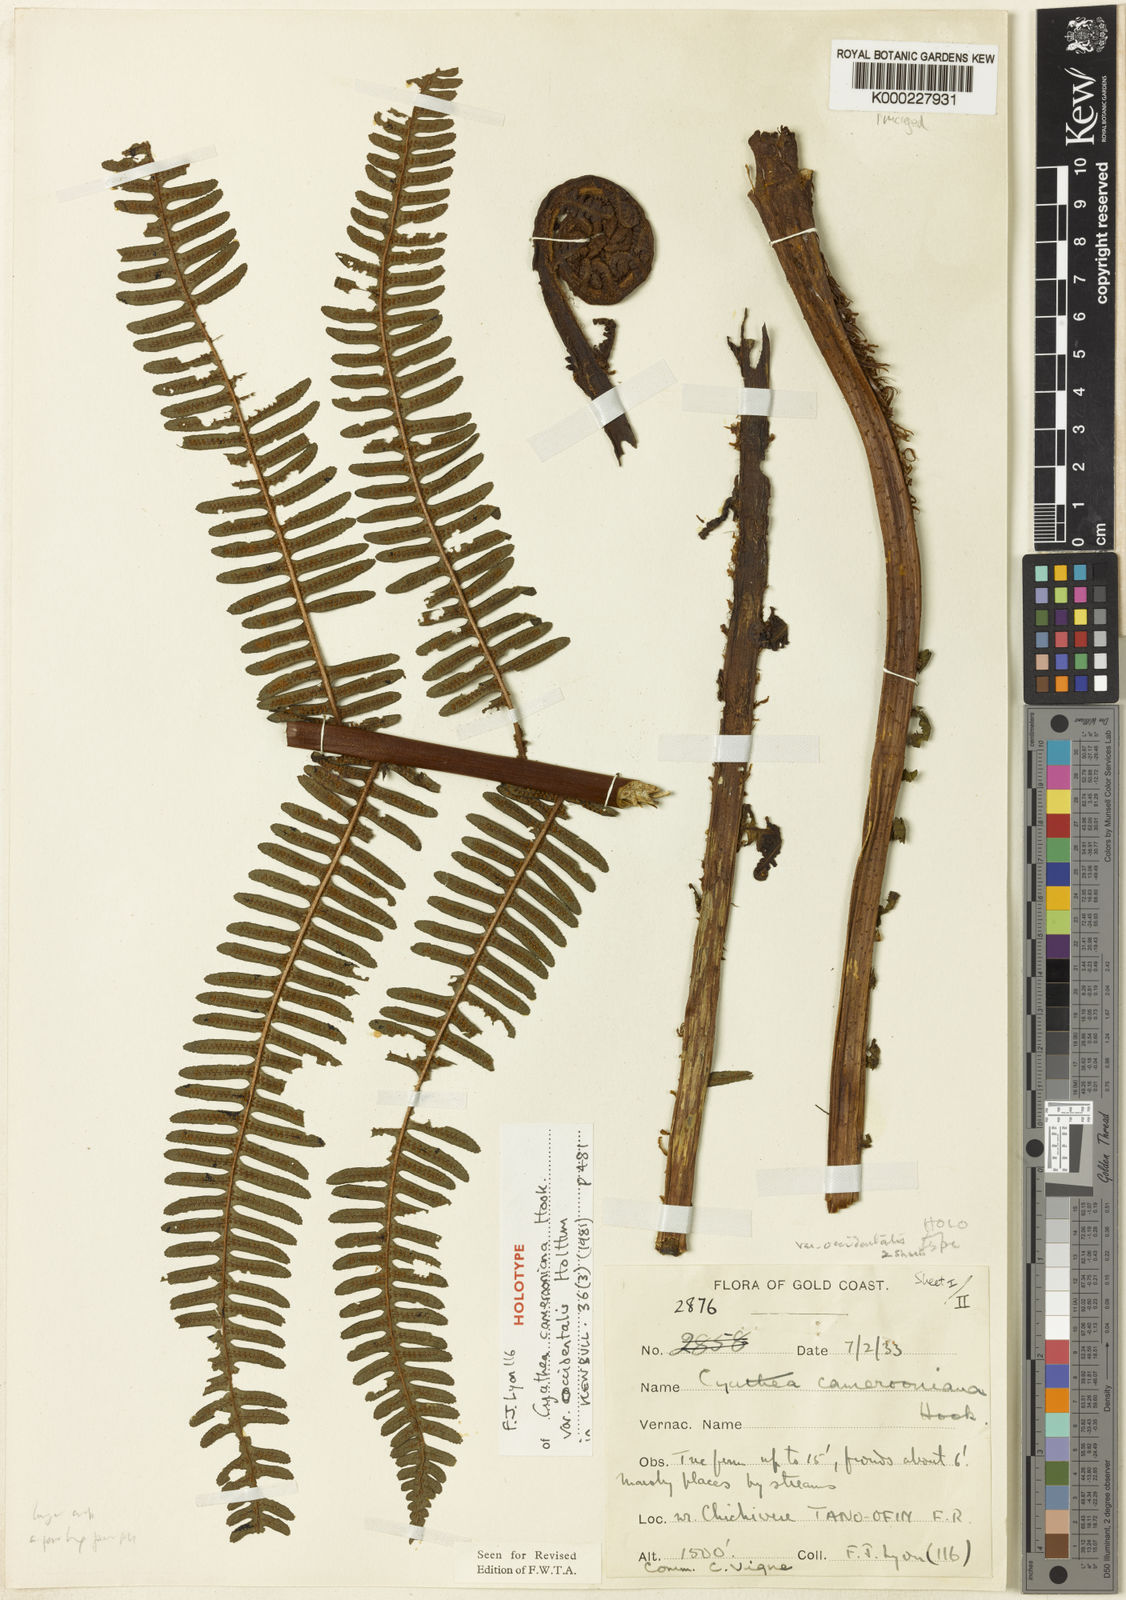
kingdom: Plantae
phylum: Tracheophyta
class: Polypodiopsida
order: Cyatheales
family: Cyatheaceae
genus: Alsophila
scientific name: Alsophila camerooniana
